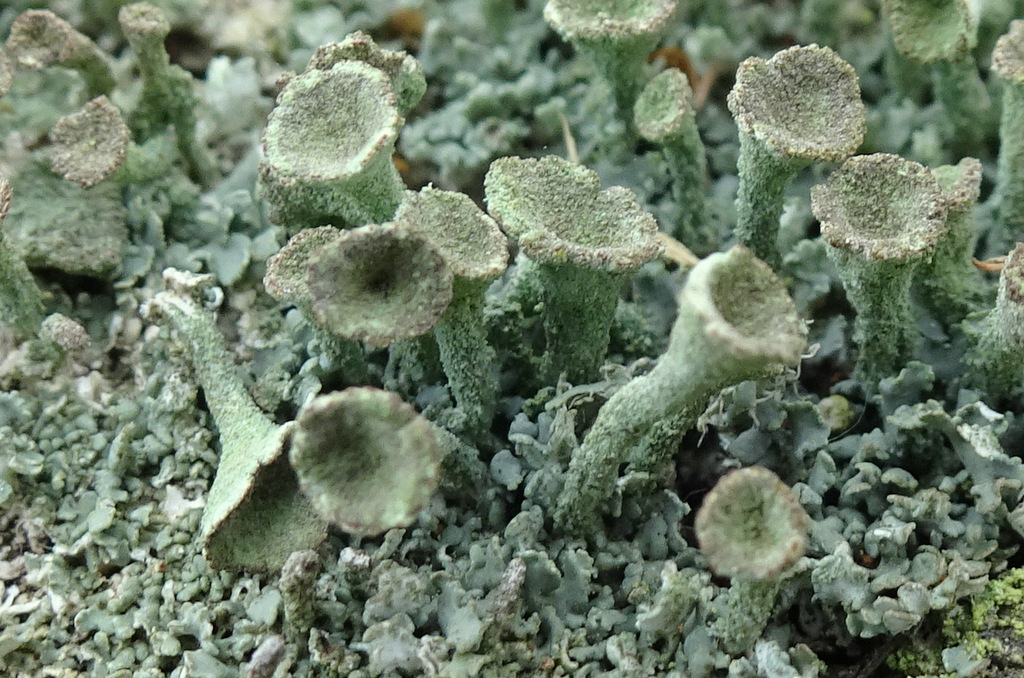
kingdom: Fungi
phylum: Ascomycota
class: Lecanoromycetes
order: Lecanorales
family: Cladoniaceae
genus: Cladonia
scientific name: Cladonia
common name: brungrøn bægerlav
